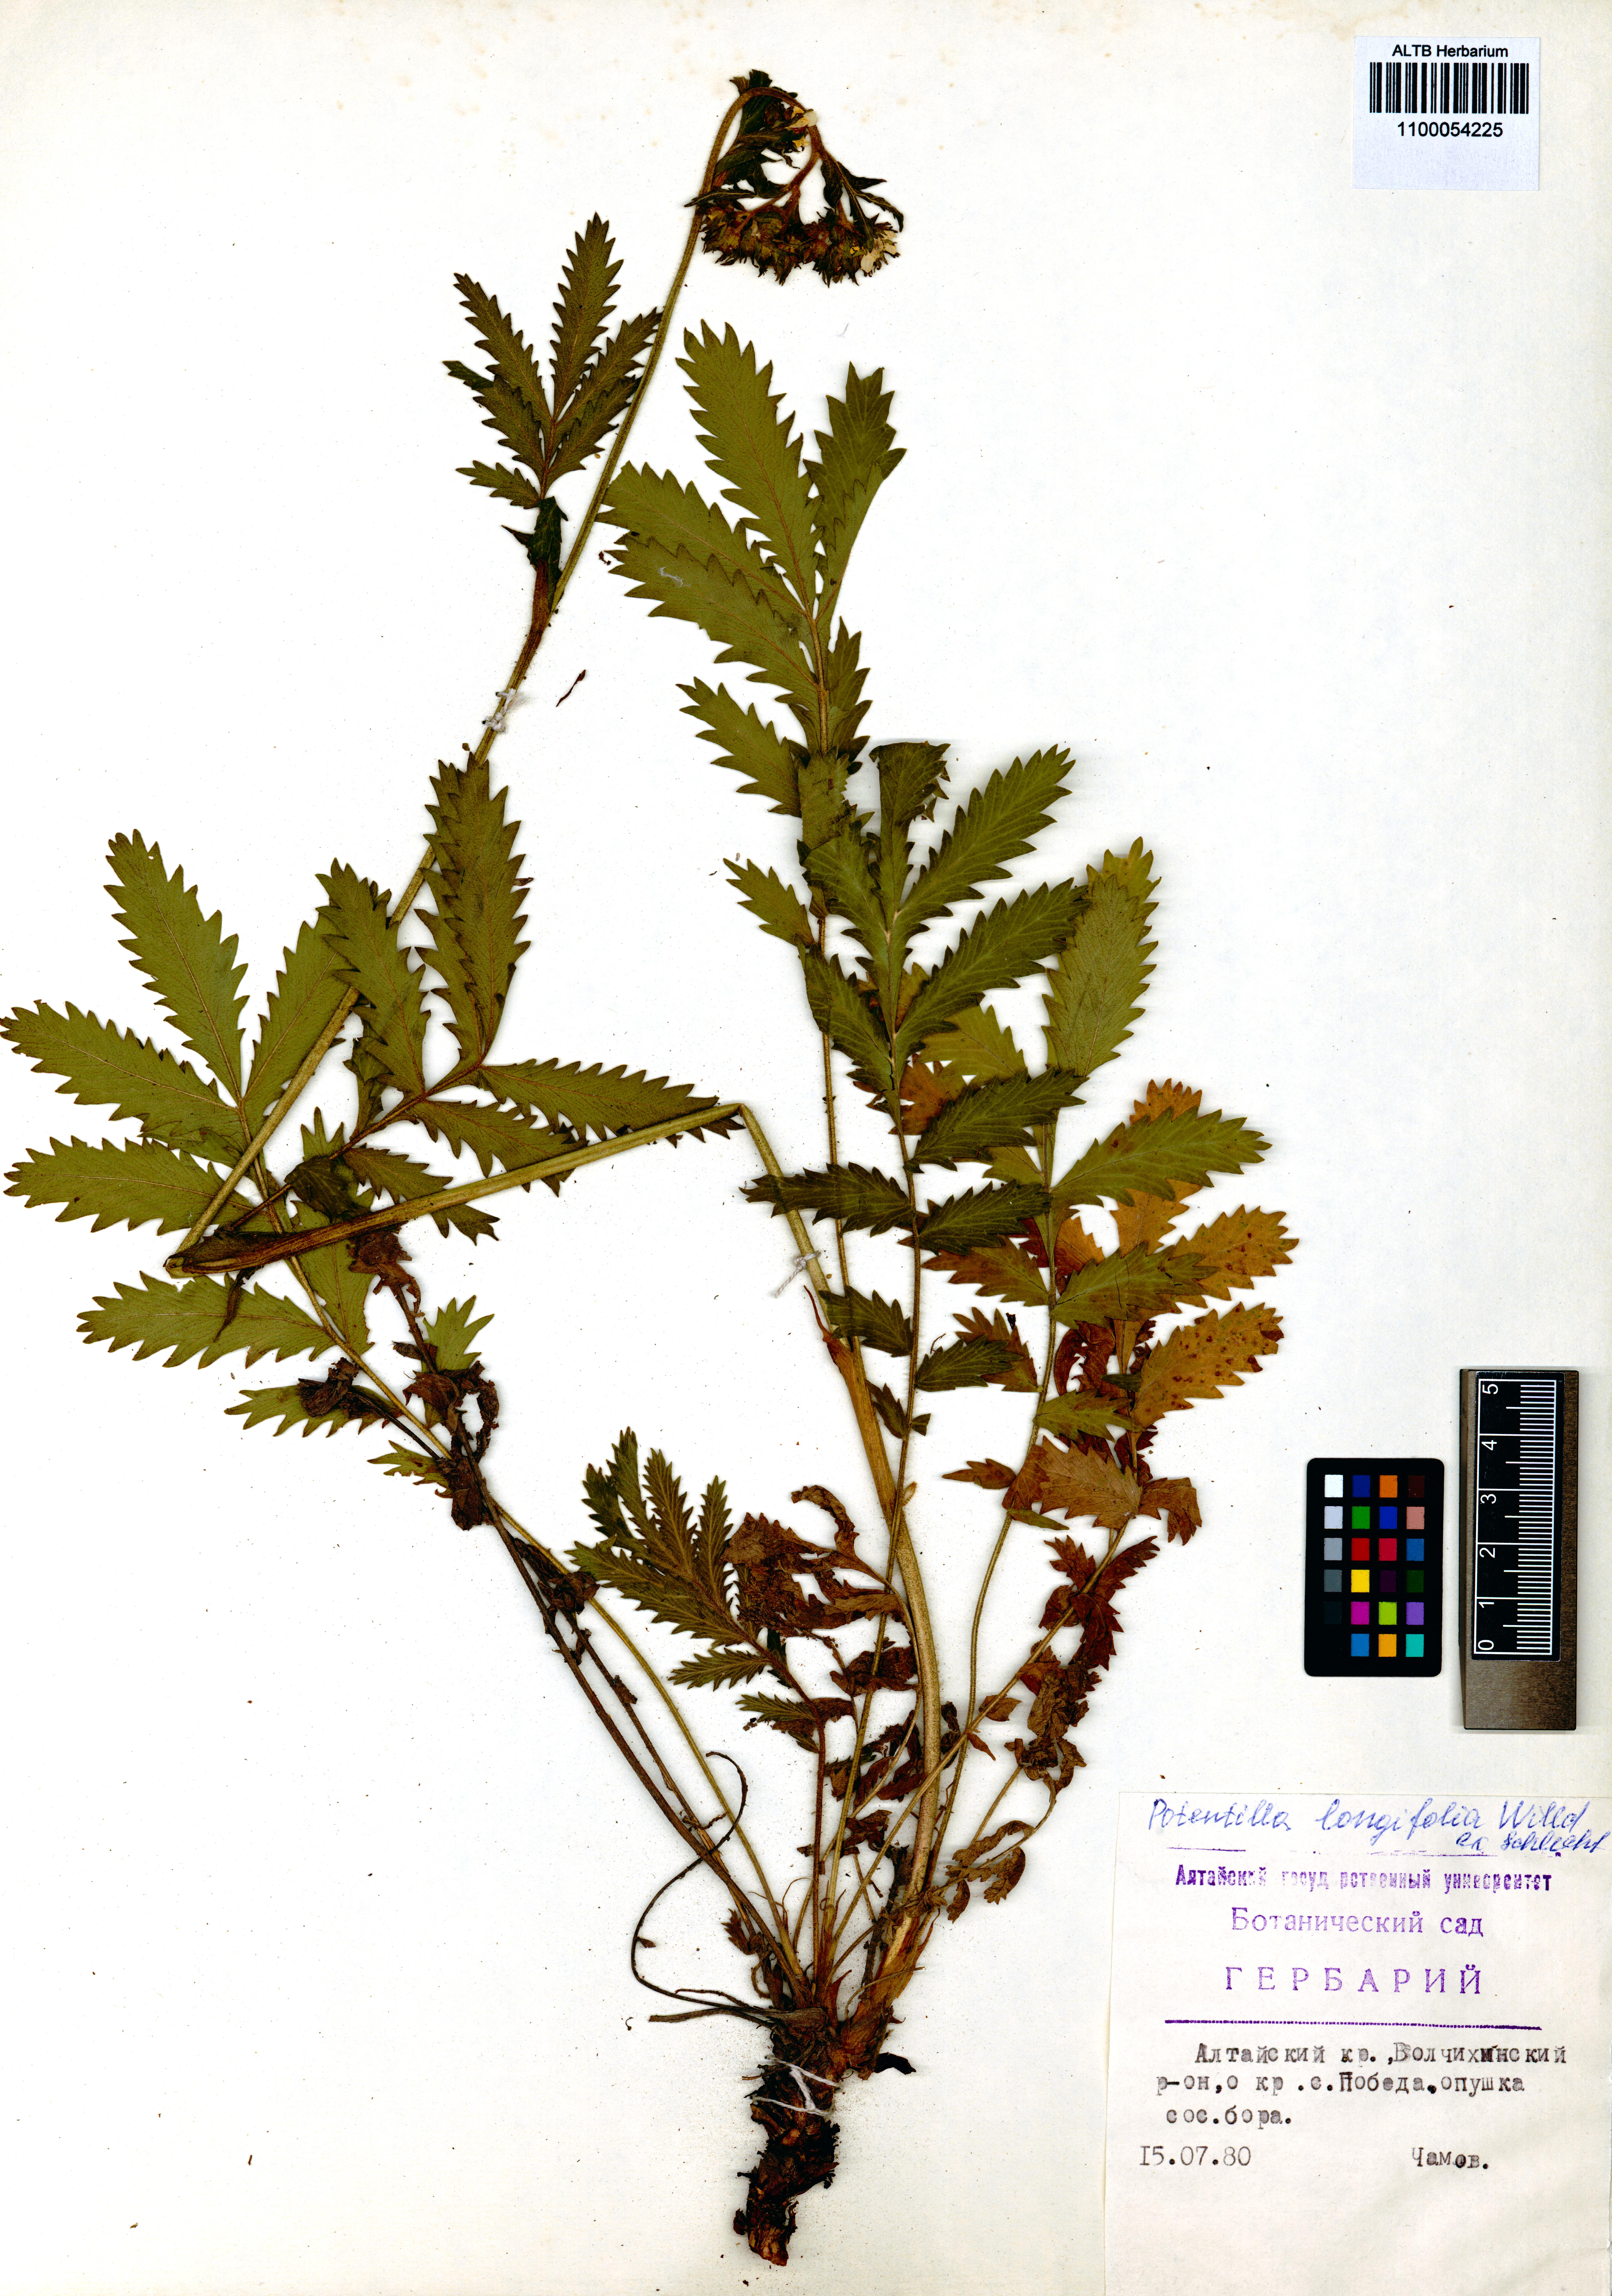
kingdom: Plantae
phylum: Tracheophyta
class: Magnoliopsida
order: Rosales
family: Rosaceae
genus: Potentilla
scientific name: Potentilla longifolia
